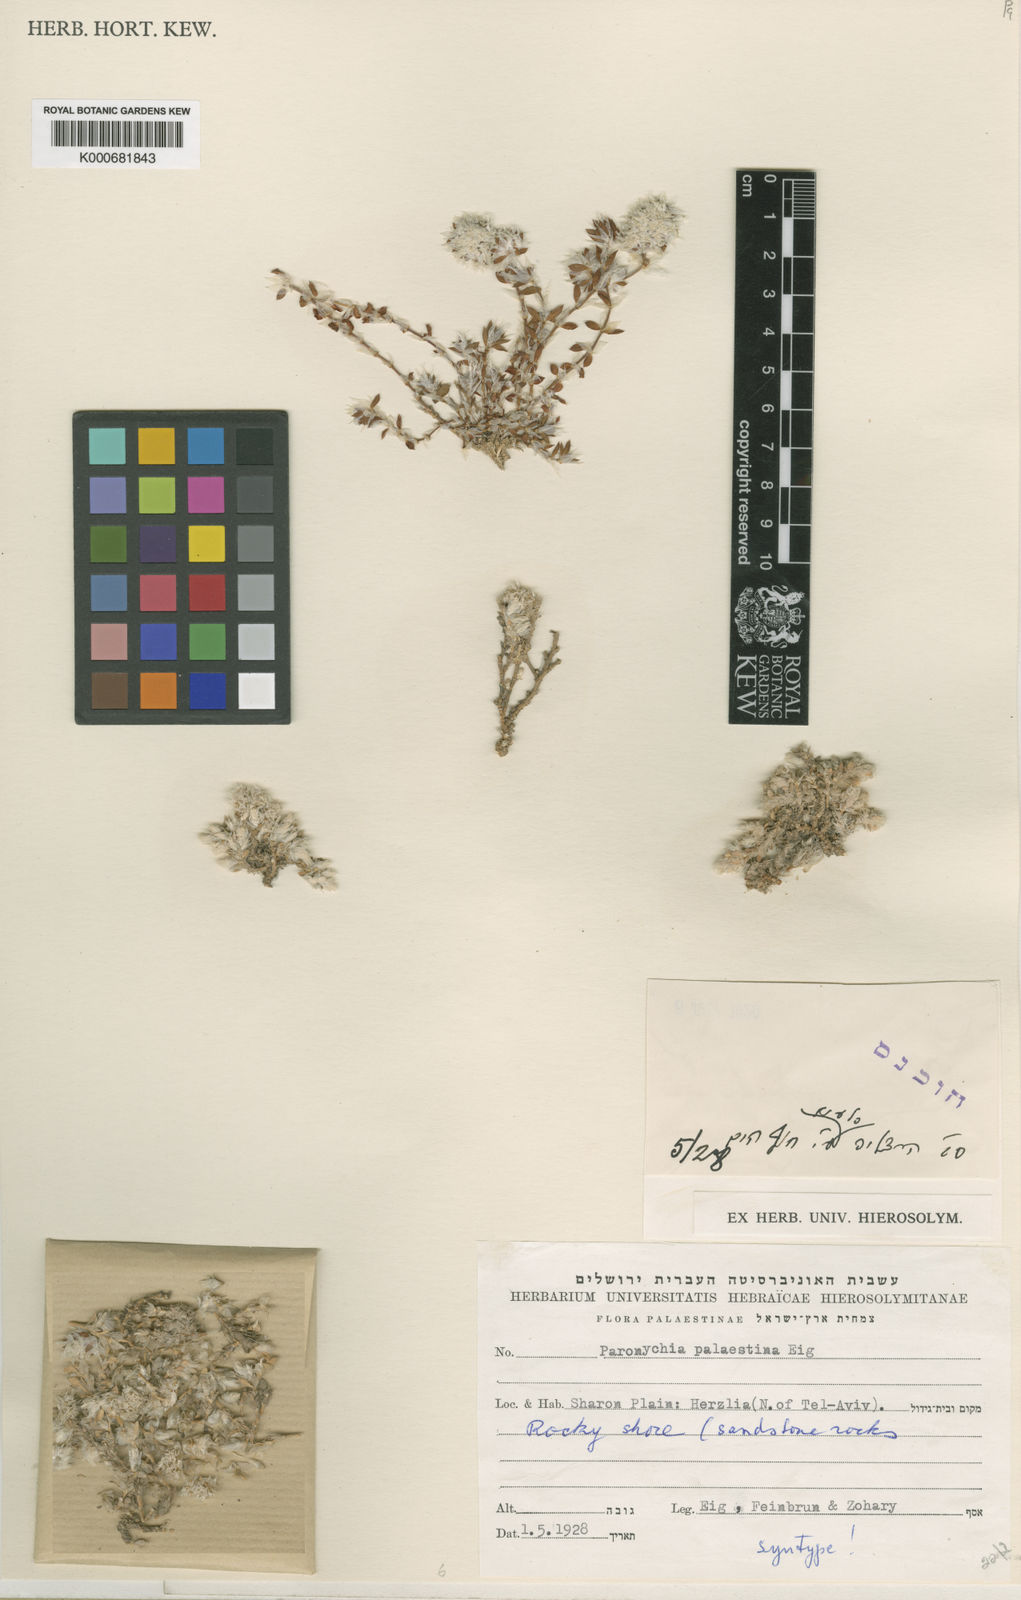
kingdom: Plantae
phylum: Tracheophyta
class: Magnoliopsida
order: Caryophyllales
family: Caryophyllaceae
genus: Paronychia
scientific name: Paronychia argentea
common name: Silver nailroot
